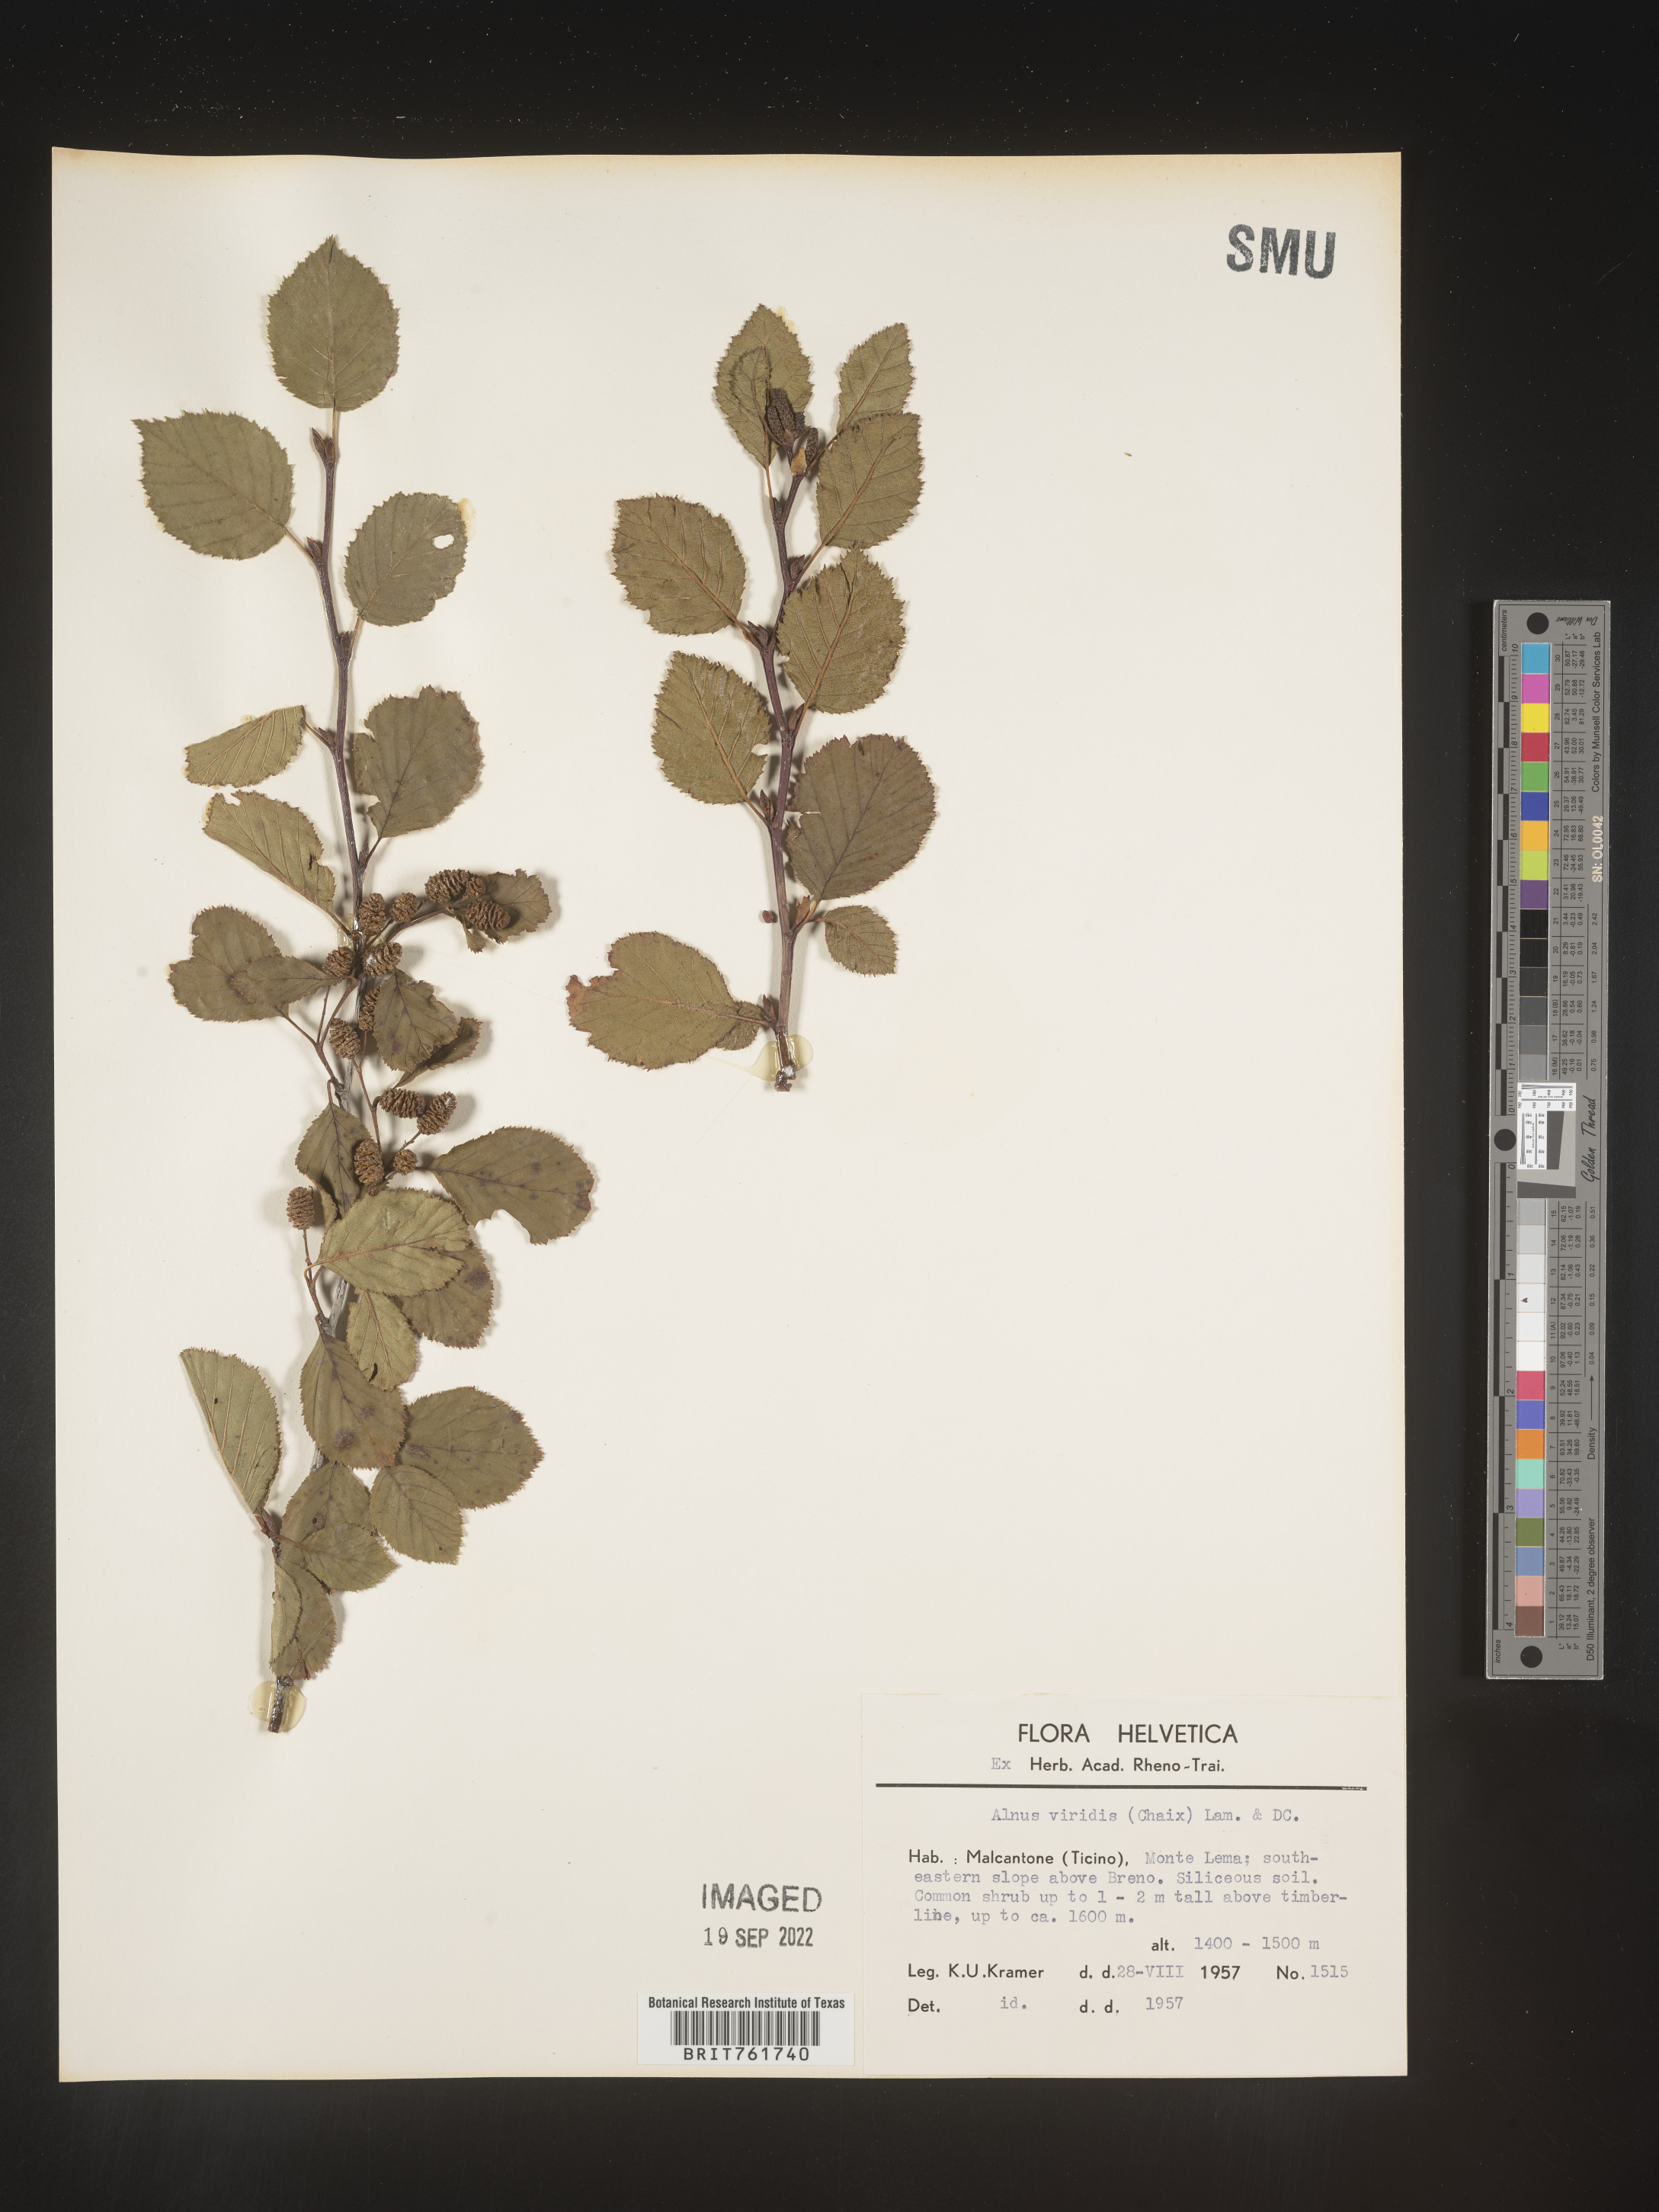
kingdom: Plantae
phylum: Tracheophyta
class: Magnoliopsida
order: Fagales
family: Betulaceae
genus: Alnus
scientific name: Alnus
